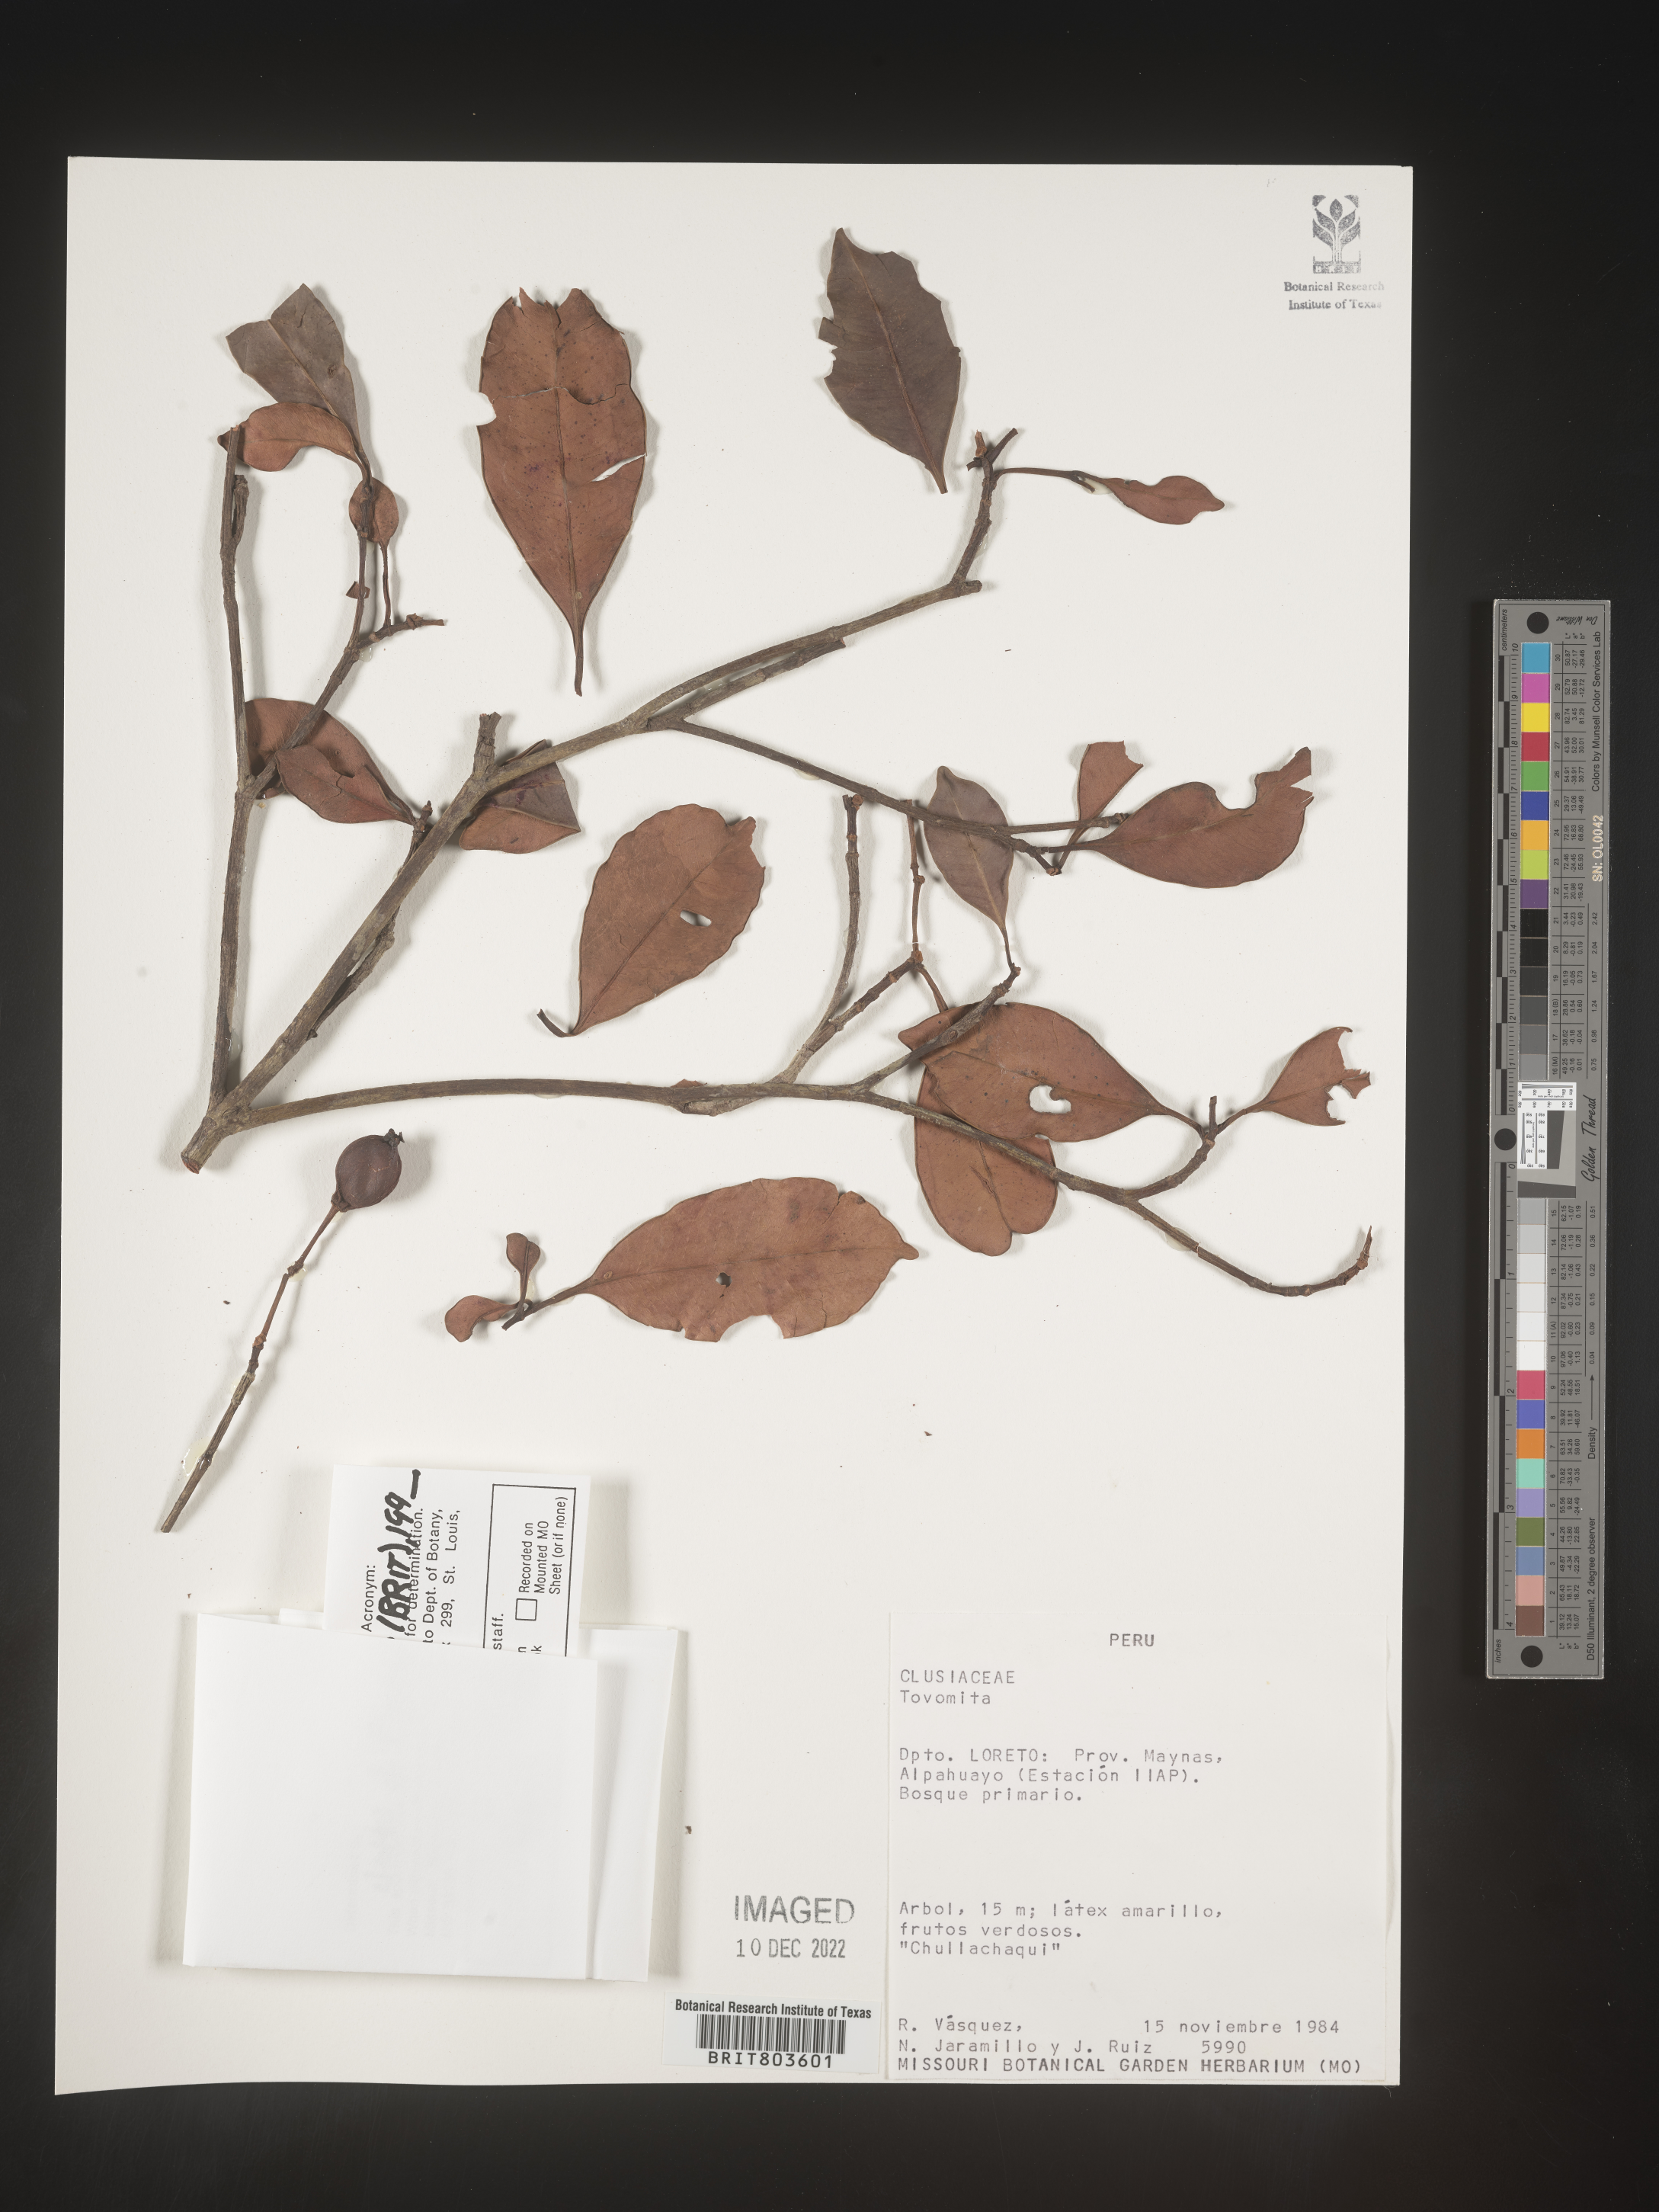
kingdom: Plantae
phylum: Tracheophyta
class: Magnoliopsida
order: Malpighiales
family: Clusiaceae
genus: Tovomita
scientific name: Tovomita
